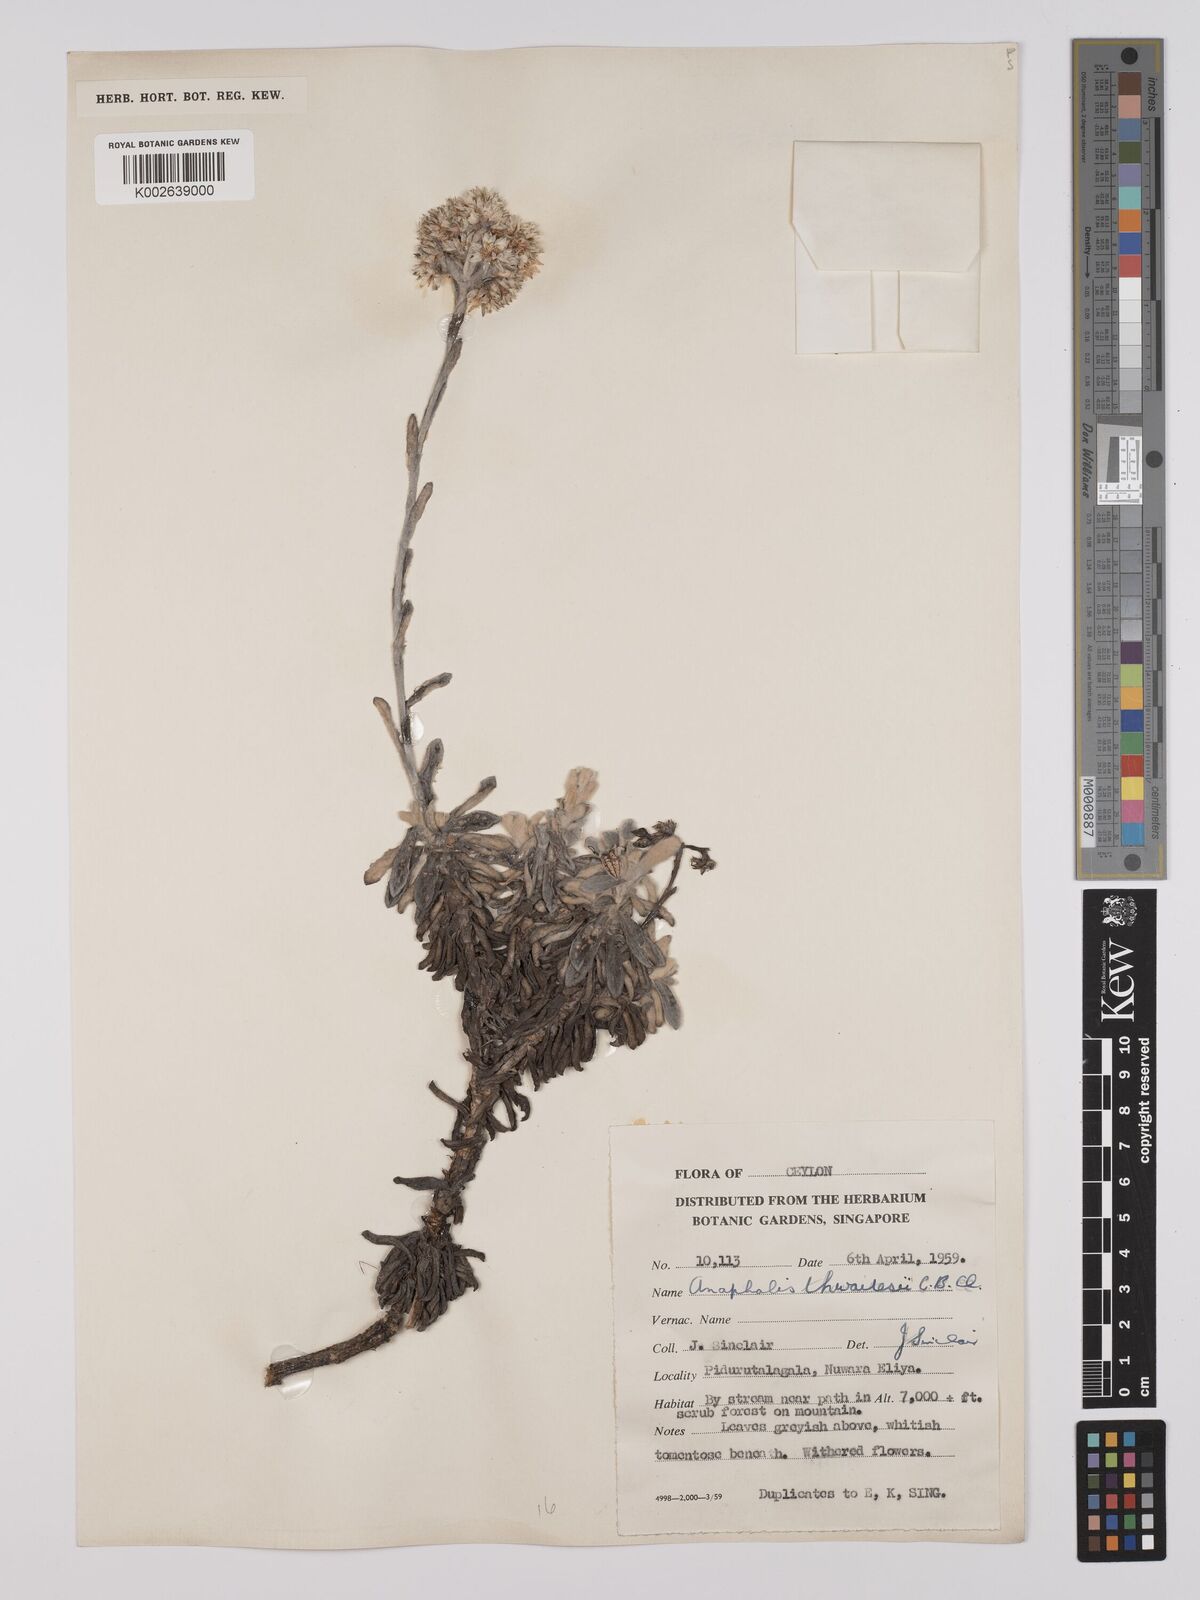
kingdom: Plantae
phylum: Tracheophyta
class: Magnoliopsida
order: Asterales
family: Asteraceae
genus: Anaphalis
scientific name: Anaphalis thwaitesii
